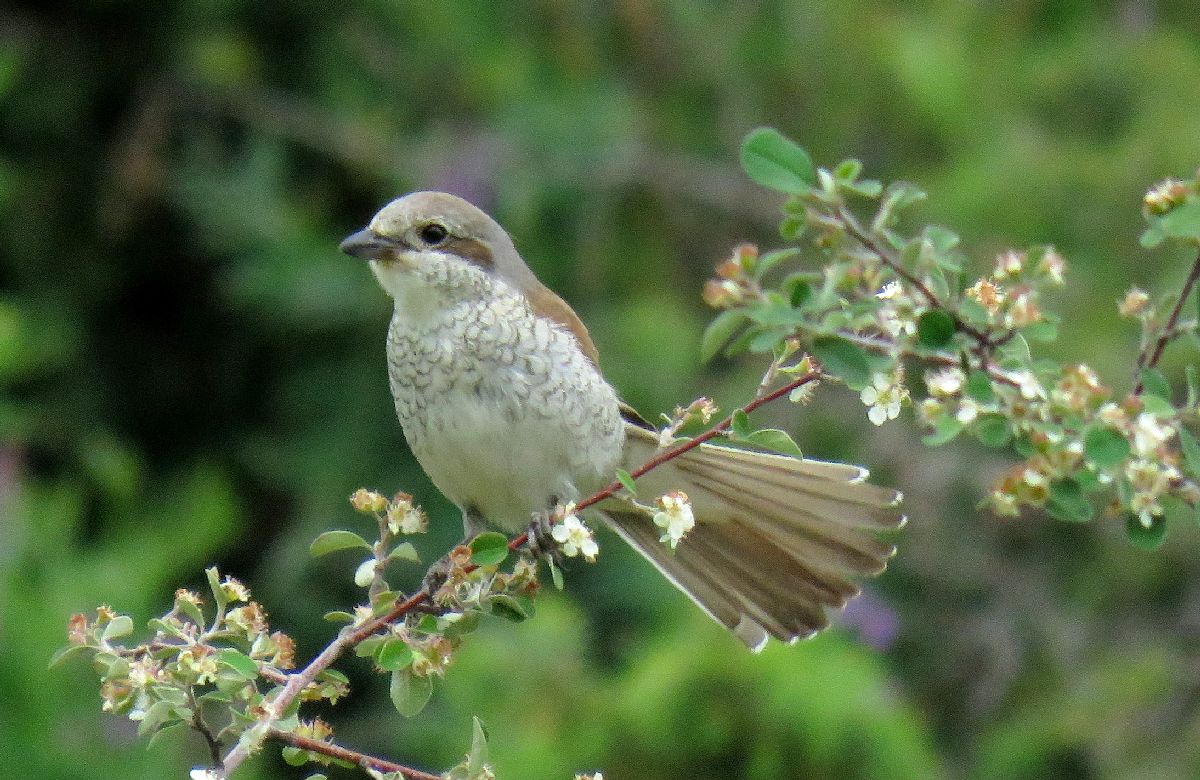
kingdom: Animalia
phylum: Chordata
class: Aves
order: Passeriformes
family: Laniidae
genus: Lanius
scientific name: Lanius collurio
